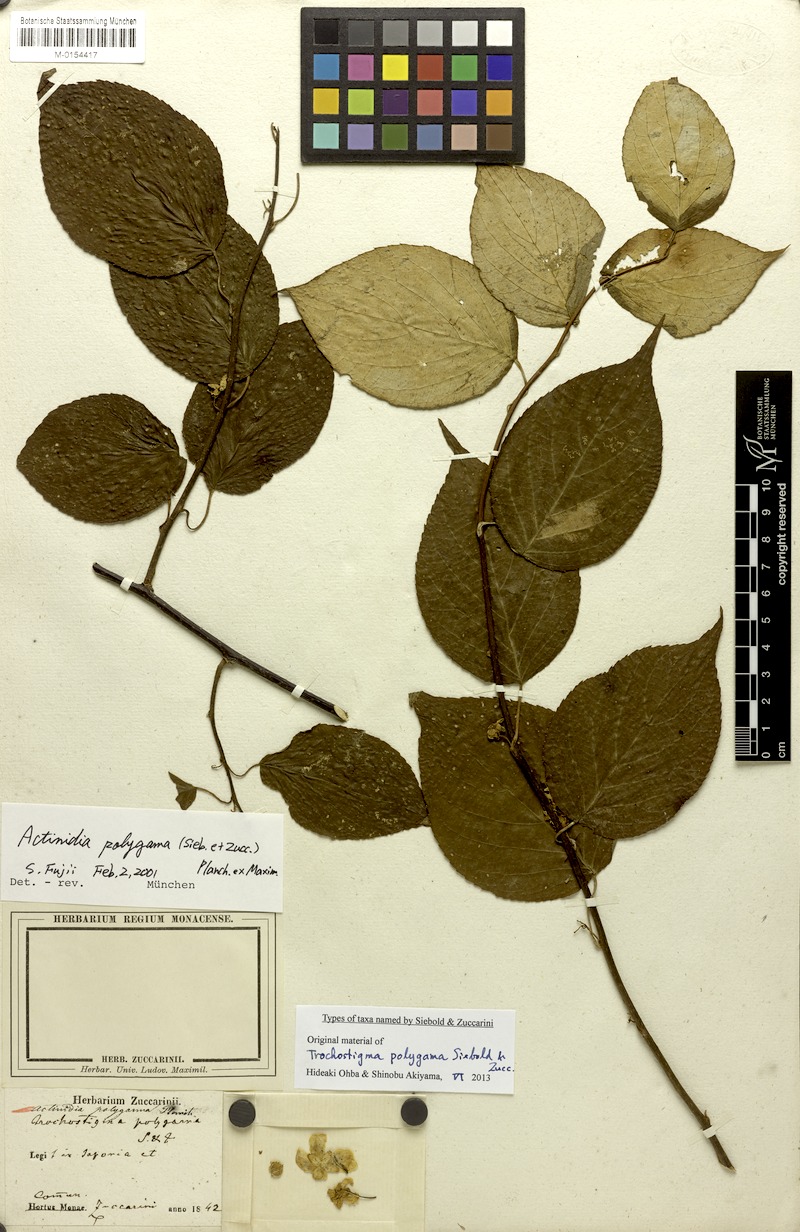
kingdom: Plantae
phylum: Tracheophyta
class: Magnoliopsida
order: Ericales
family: Actinidiaceae
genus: Actinidia
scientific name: Actinidia polygama
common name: Silver vine
